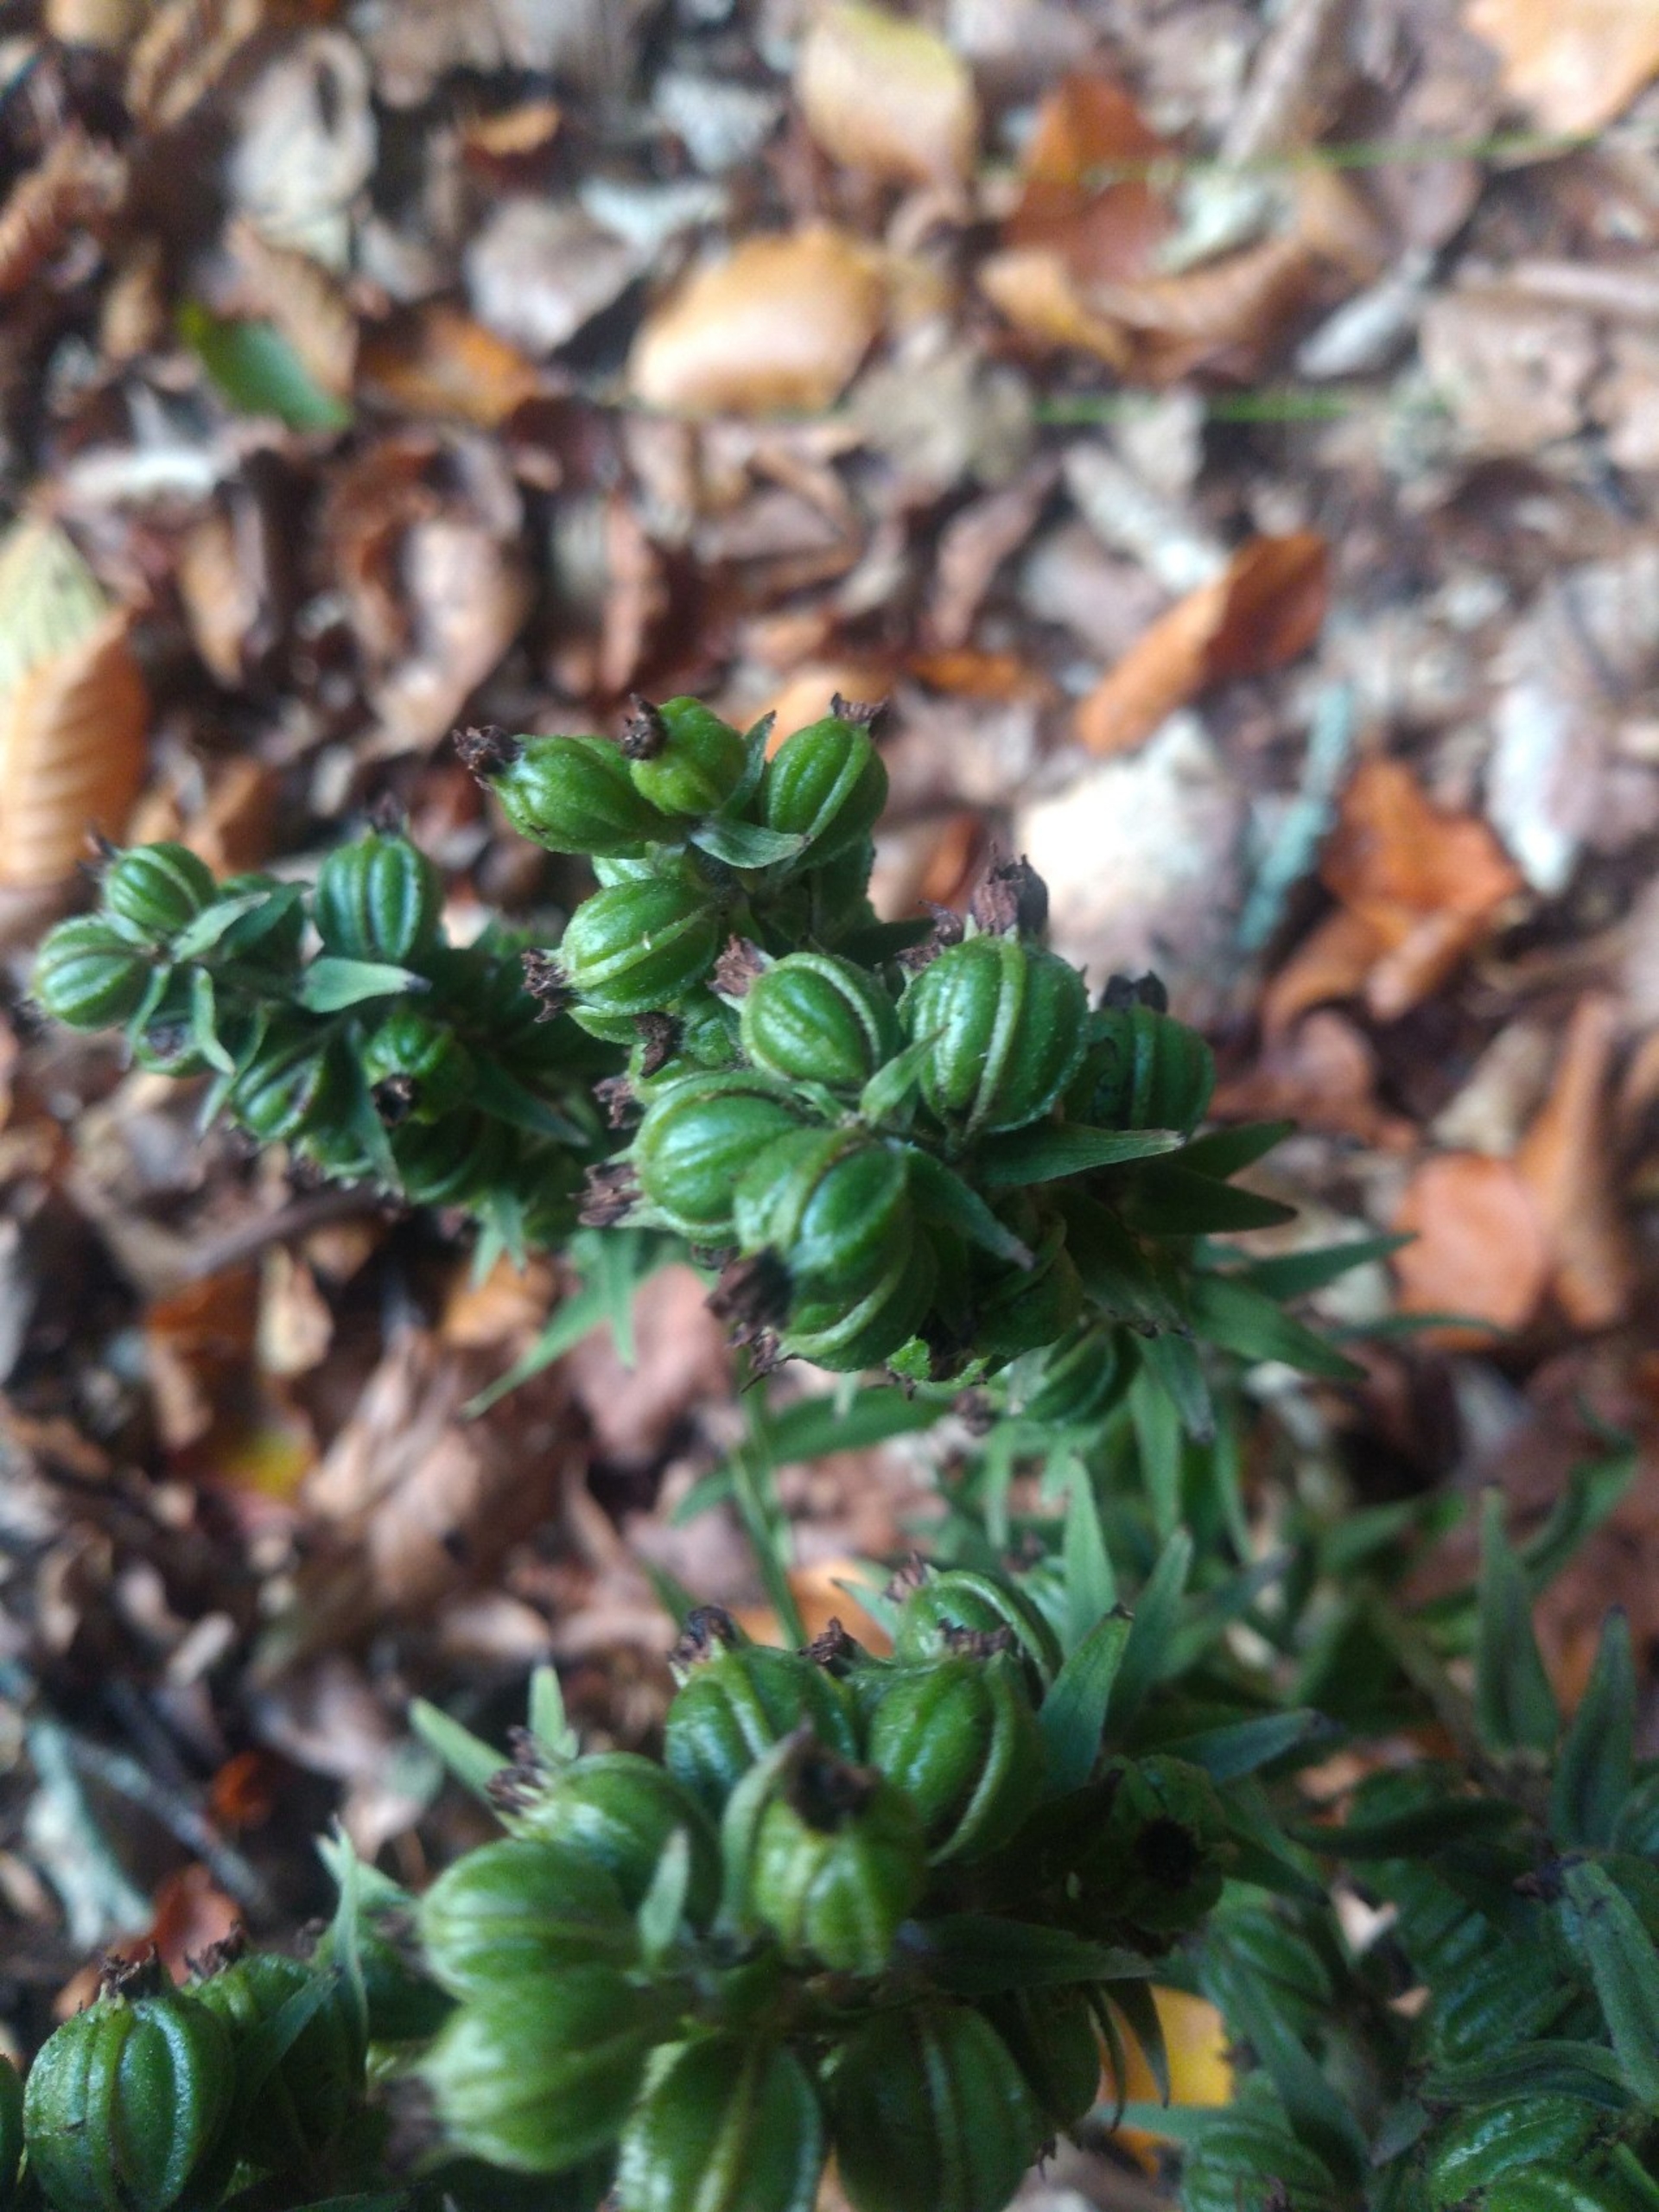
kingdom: Plantae
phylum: Tracheophyta
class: Liliopsida
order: Asparagales
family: Orchidaceae
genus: Epipactis
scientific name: Epipactis purpurata
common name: Tætblomstret hullæbe
